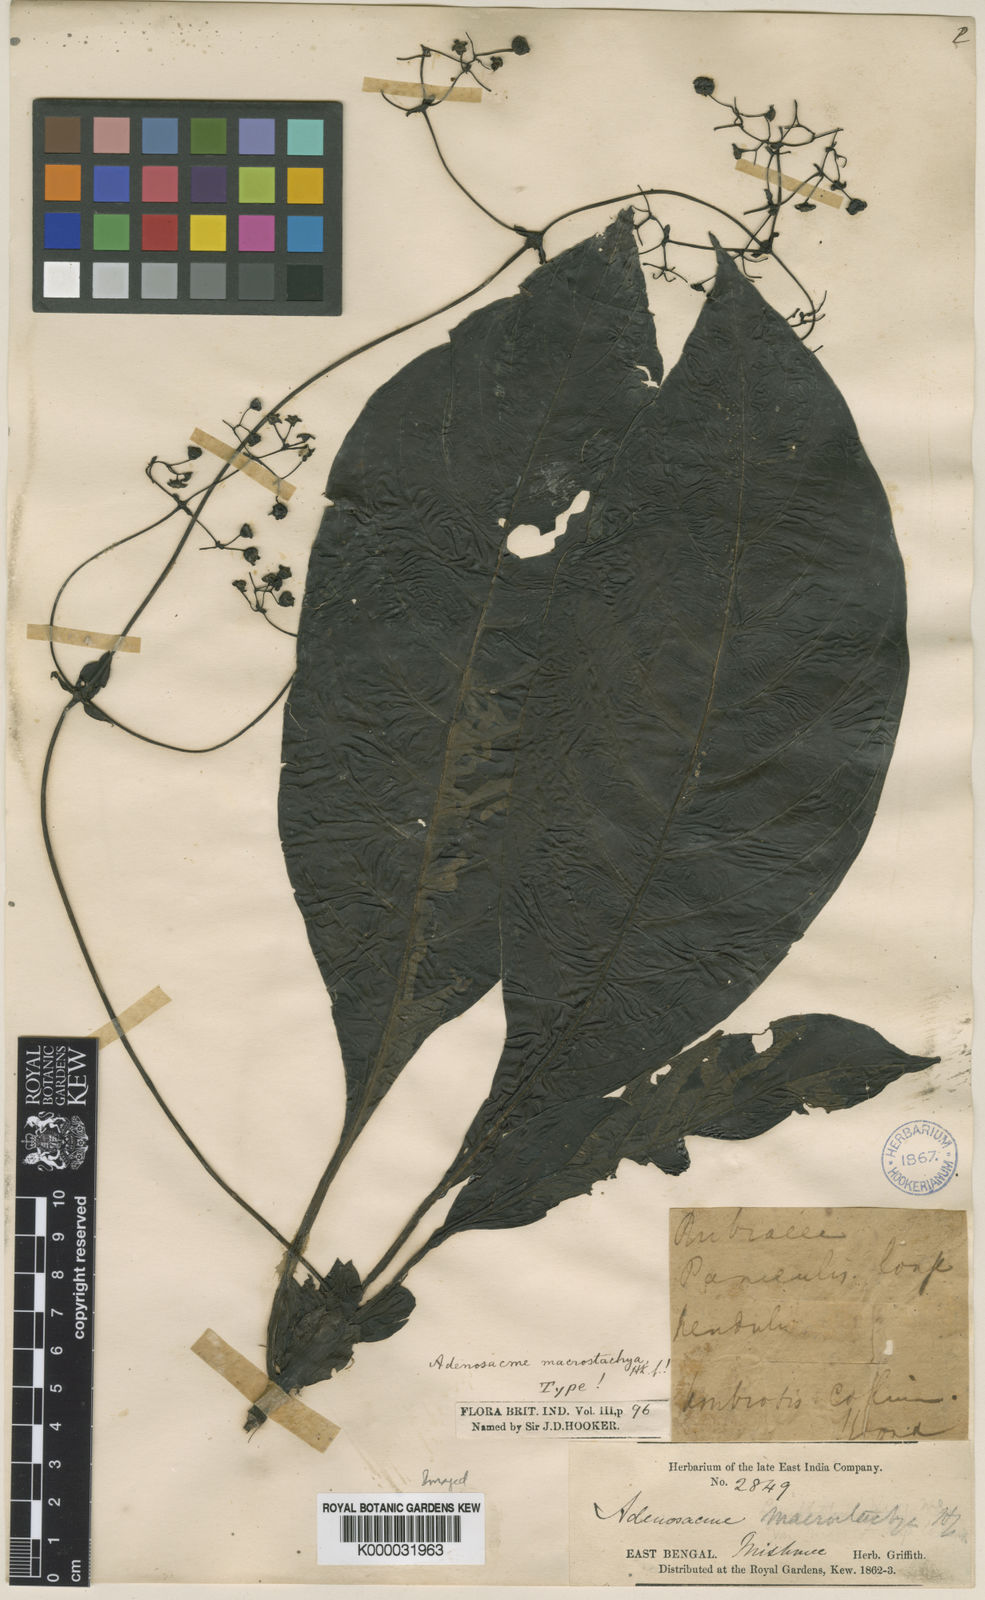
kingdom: Plantae
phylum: Tracheophyta
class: Magnoliopsida
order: Gentianales
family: Rubiaceae
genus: Mycetia
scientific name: Mycetia stipulata
